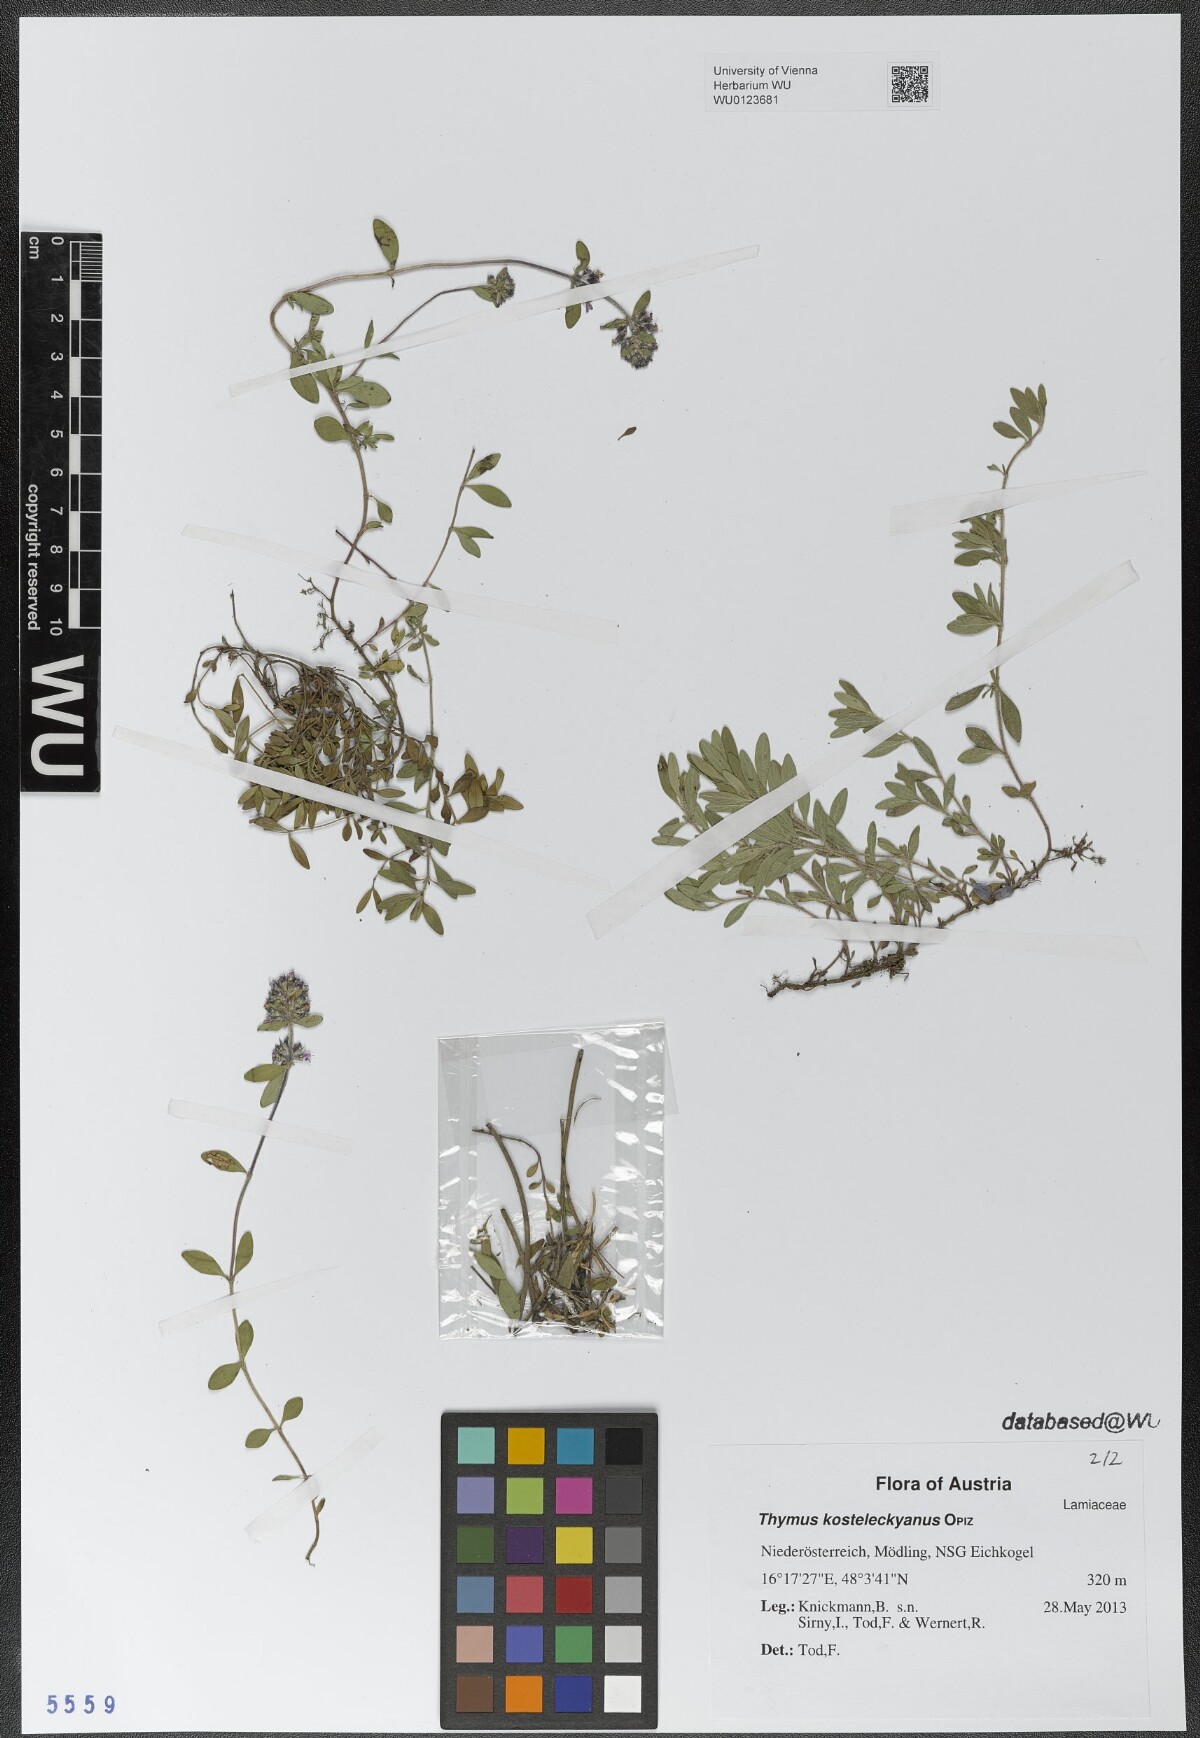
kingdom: Plantae
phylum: Tracheophyta
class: Magnoliopsida
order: Lamiales
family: Lamiaceae
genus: Thymus
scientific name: Thymus kosteleckyanus
